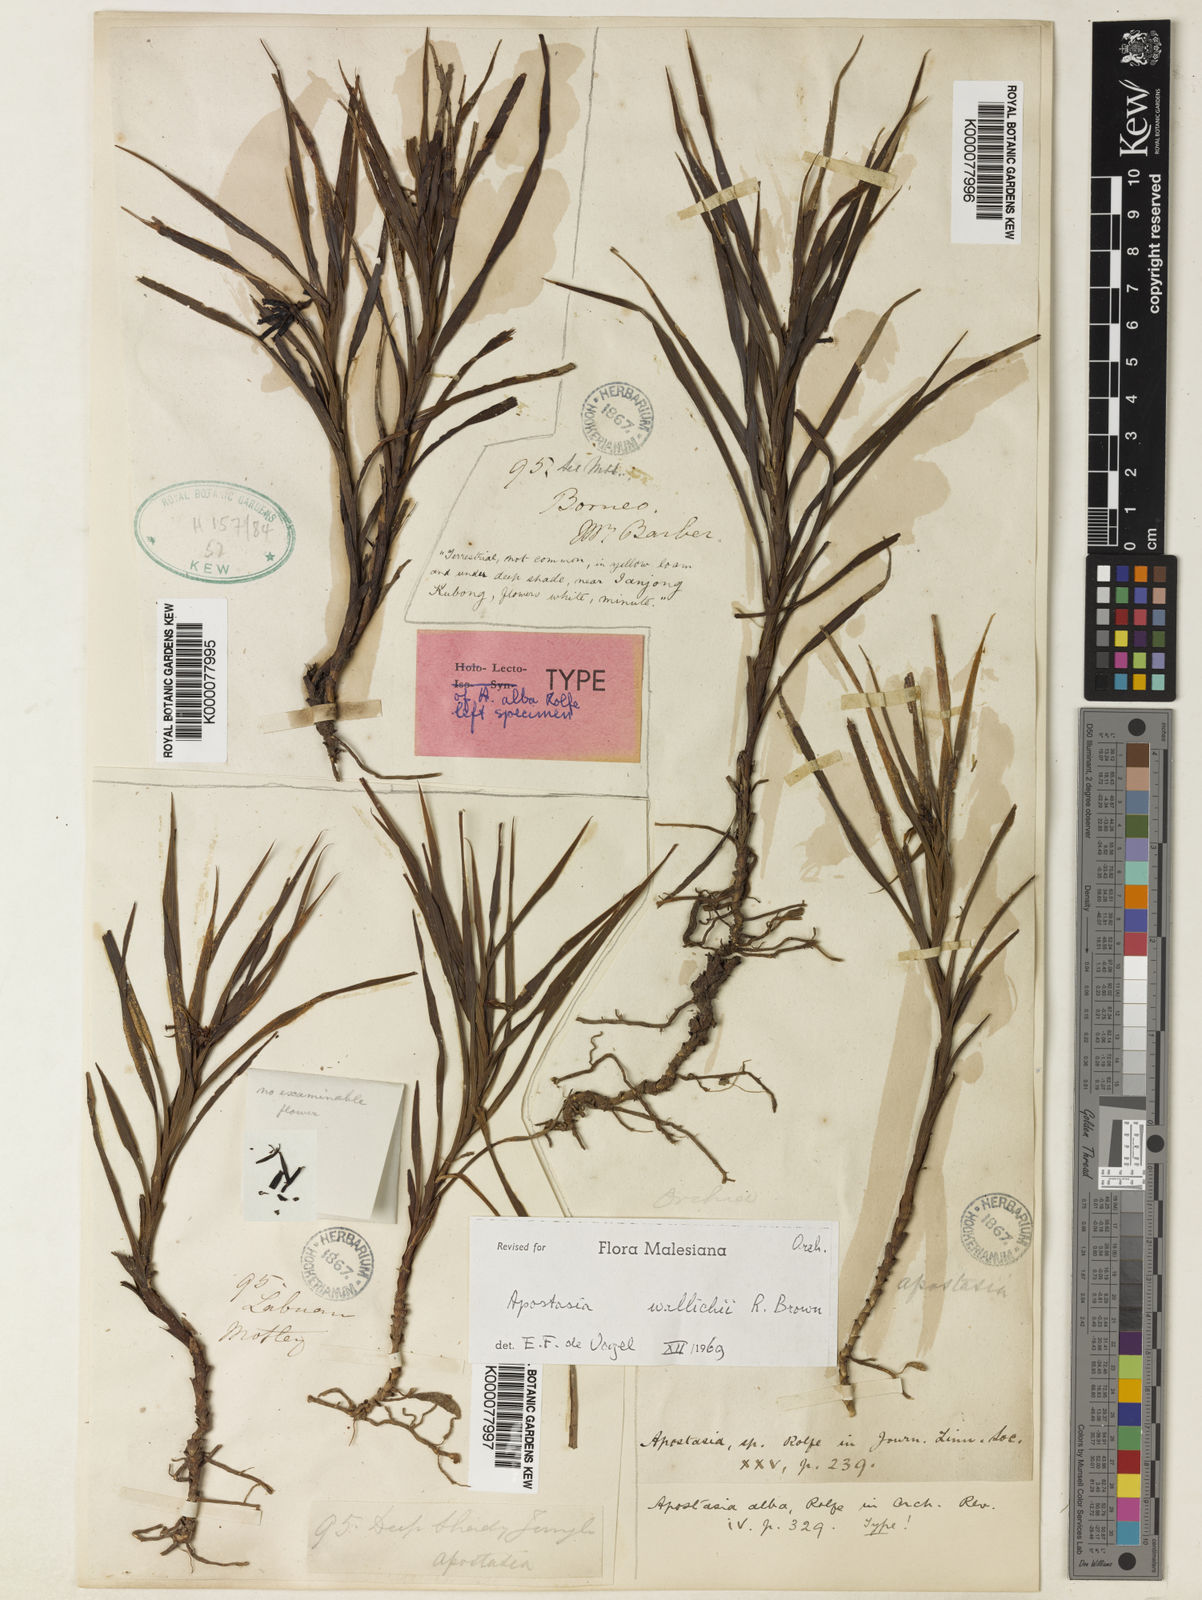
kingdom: Plantae
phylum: Tracheophyta
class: Liliopsida
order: Asparagales
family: Orchidaceae
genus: Apostasia
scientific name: Apostasia wallichii
